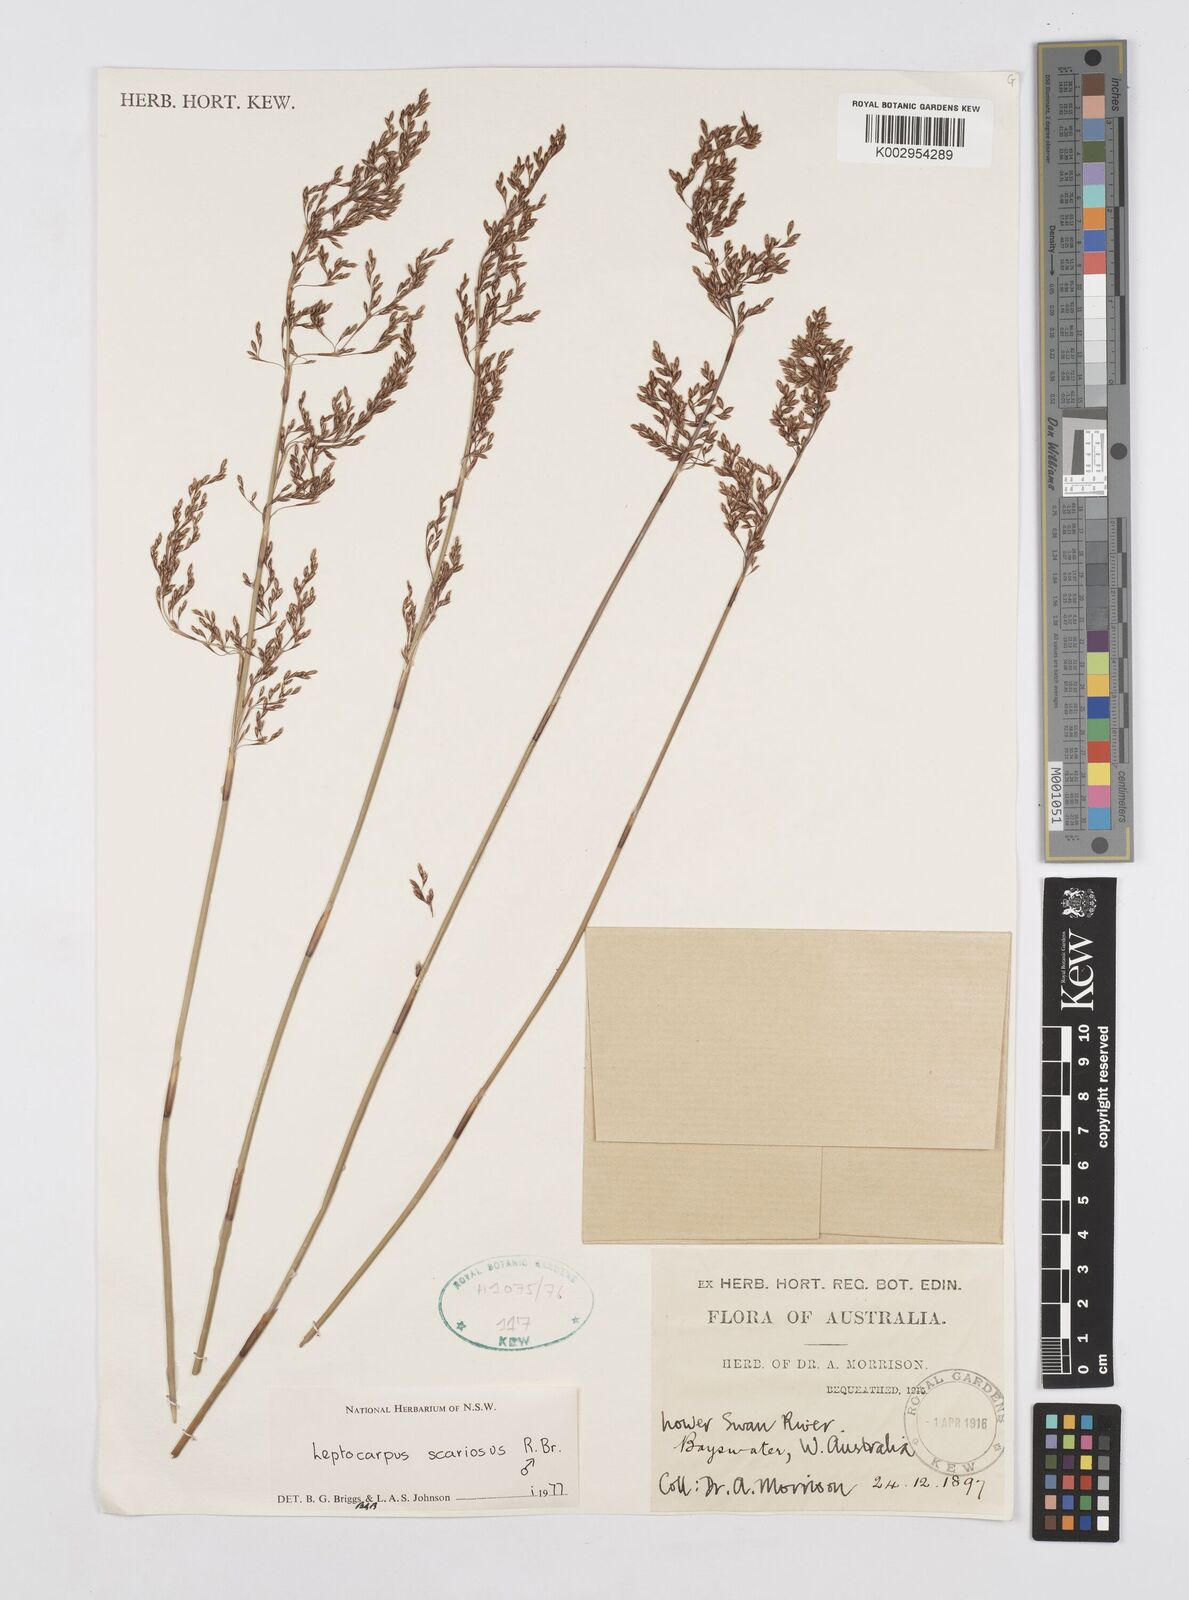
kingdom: Plantae
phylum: Tracheophyta
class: Liliopsida
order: Poales
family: Restionaceae
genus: Leptocarpus
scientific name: Leptocarpus scariosus
